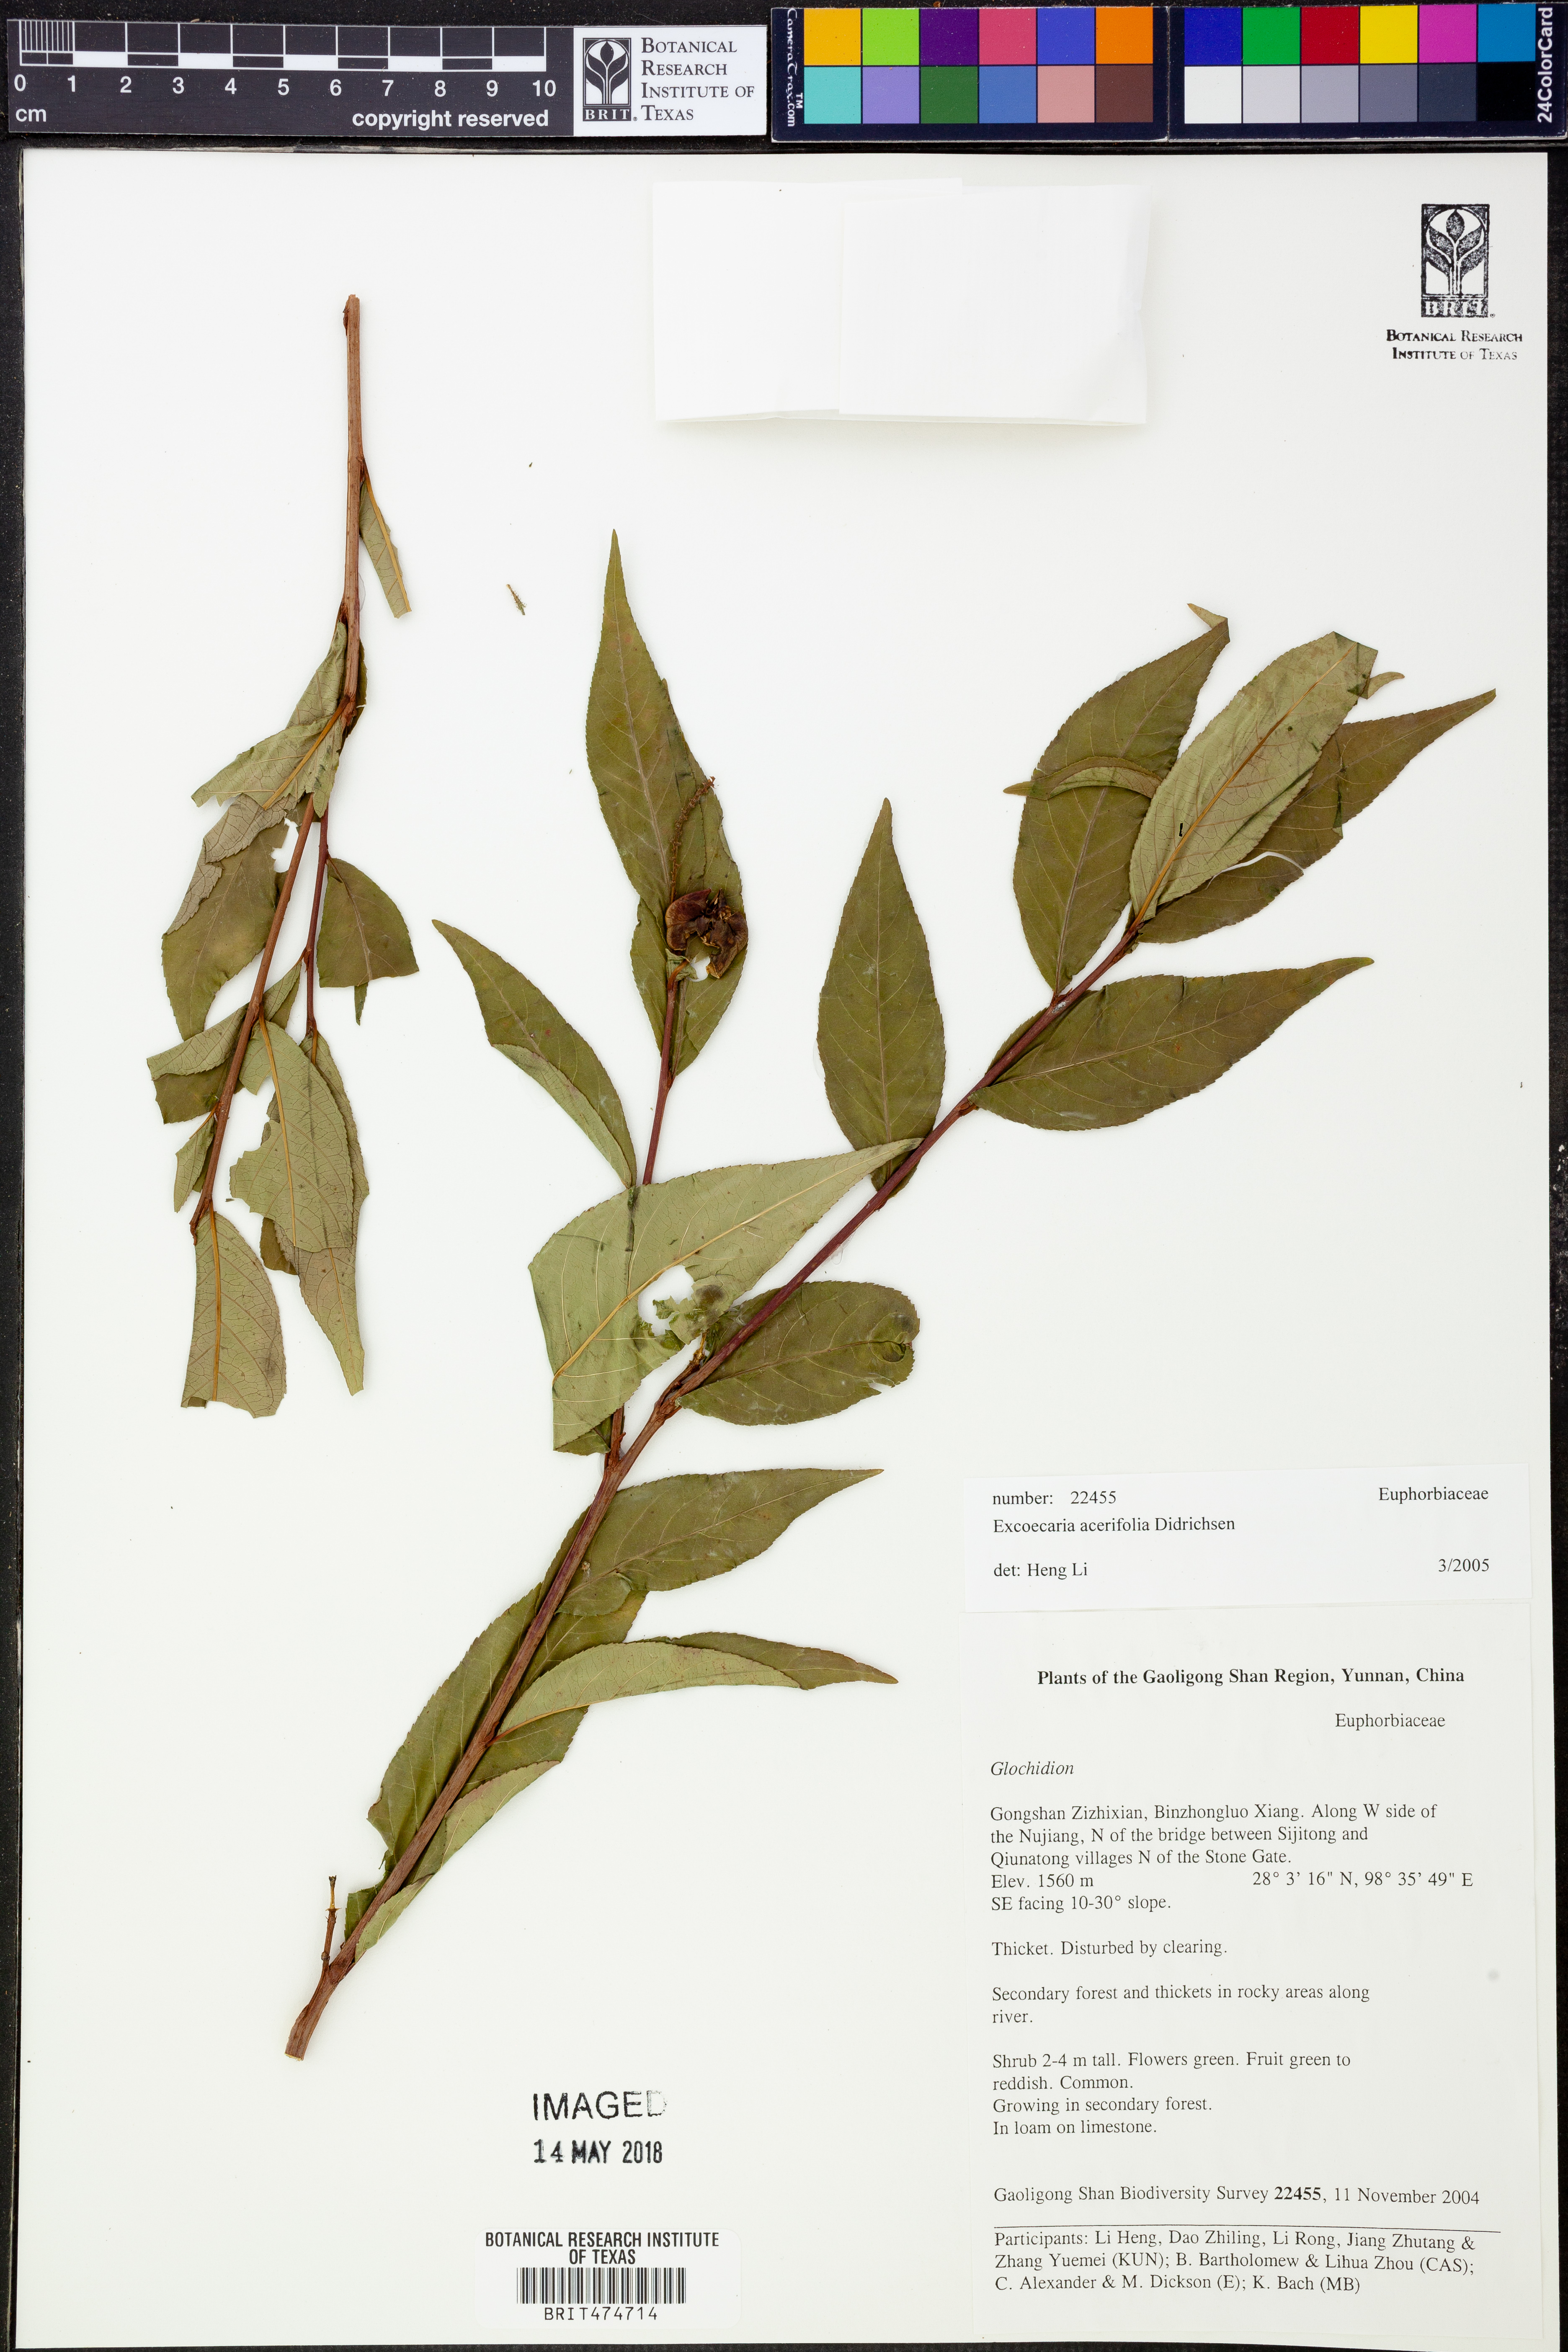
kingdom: Plantae
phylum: Tracheophyta
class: Magnoliopsida
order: Malpighiales
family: Euphorbiaceae
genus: Excoecaria
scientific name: Excoecaria acerifolia
